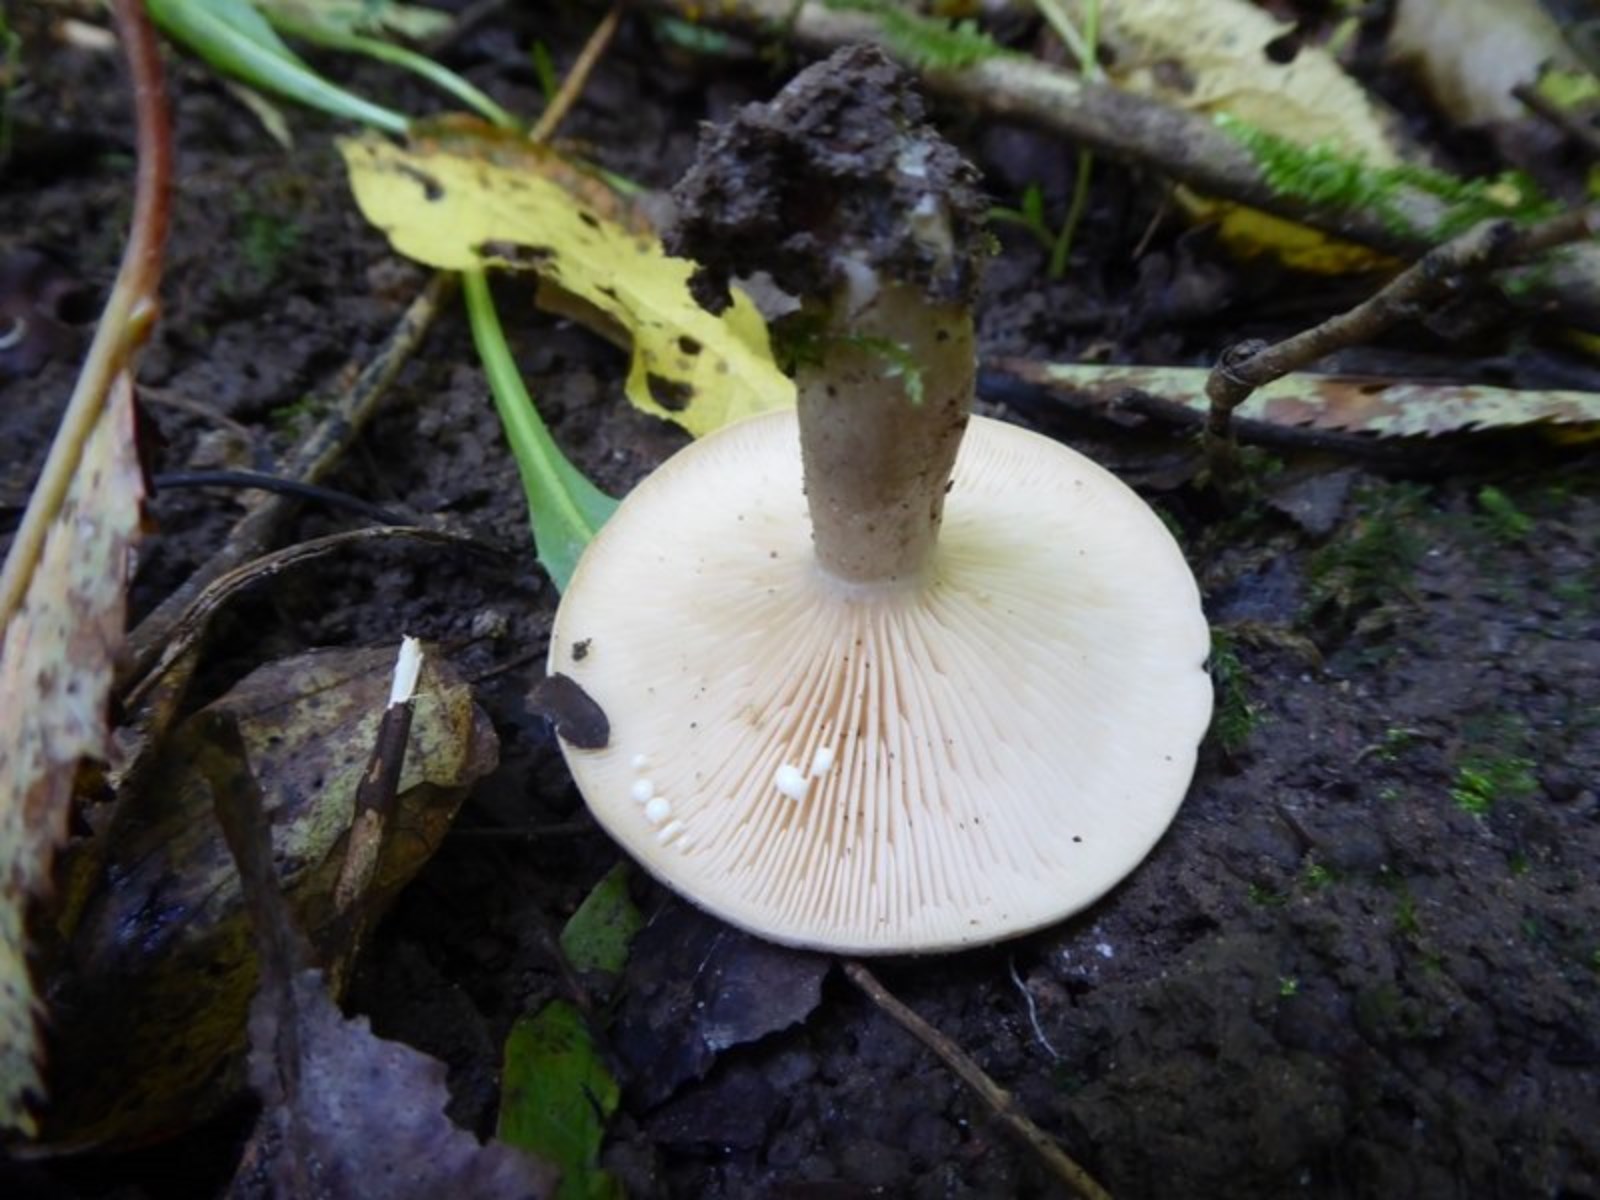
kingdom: Fungi
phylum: Basidiomycota
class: Agaricomycetes
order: Russulales
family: Russulaceae
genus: Lactarius
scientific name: Lactarius pyrogalus
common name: hassel-mælkehat
